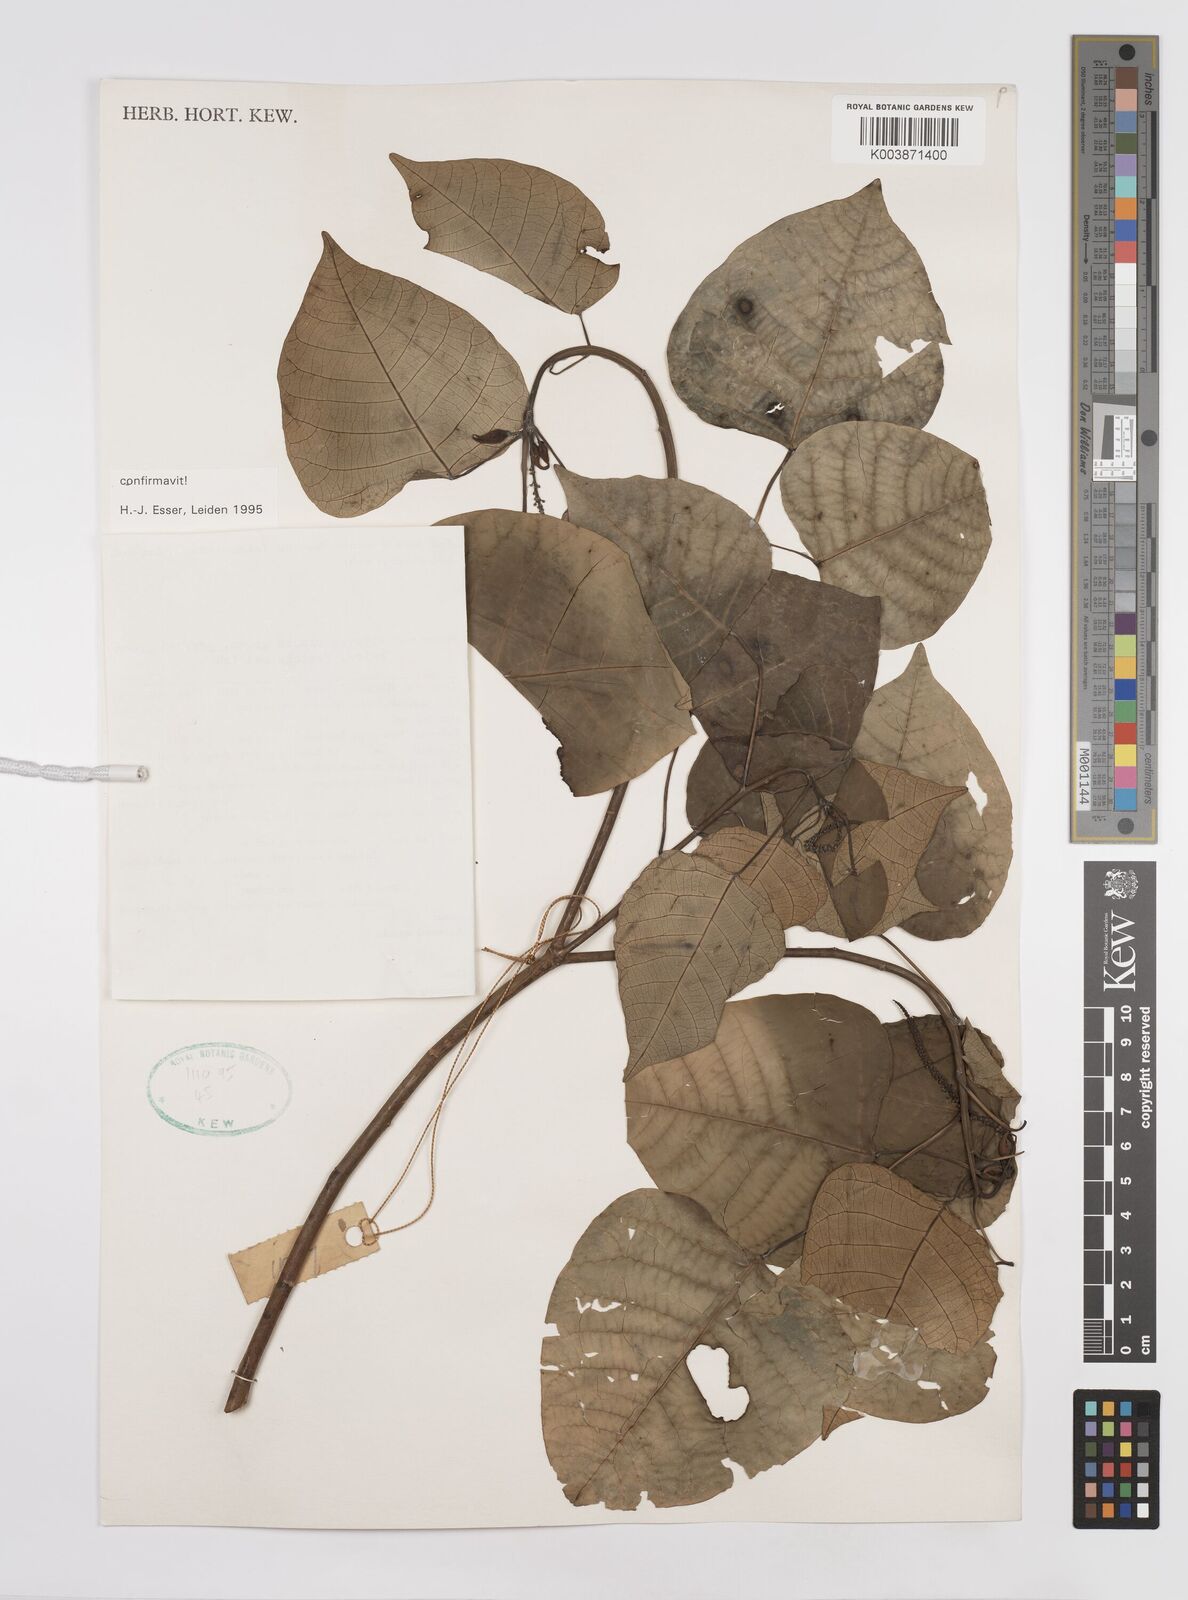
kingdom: Plantae
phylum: Tracheophyta
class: Magnoliopsida
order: Malpighiales
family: Euphorbiaceae
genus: Homalanthus
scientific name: Homalanthus populneus
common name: Spurge
